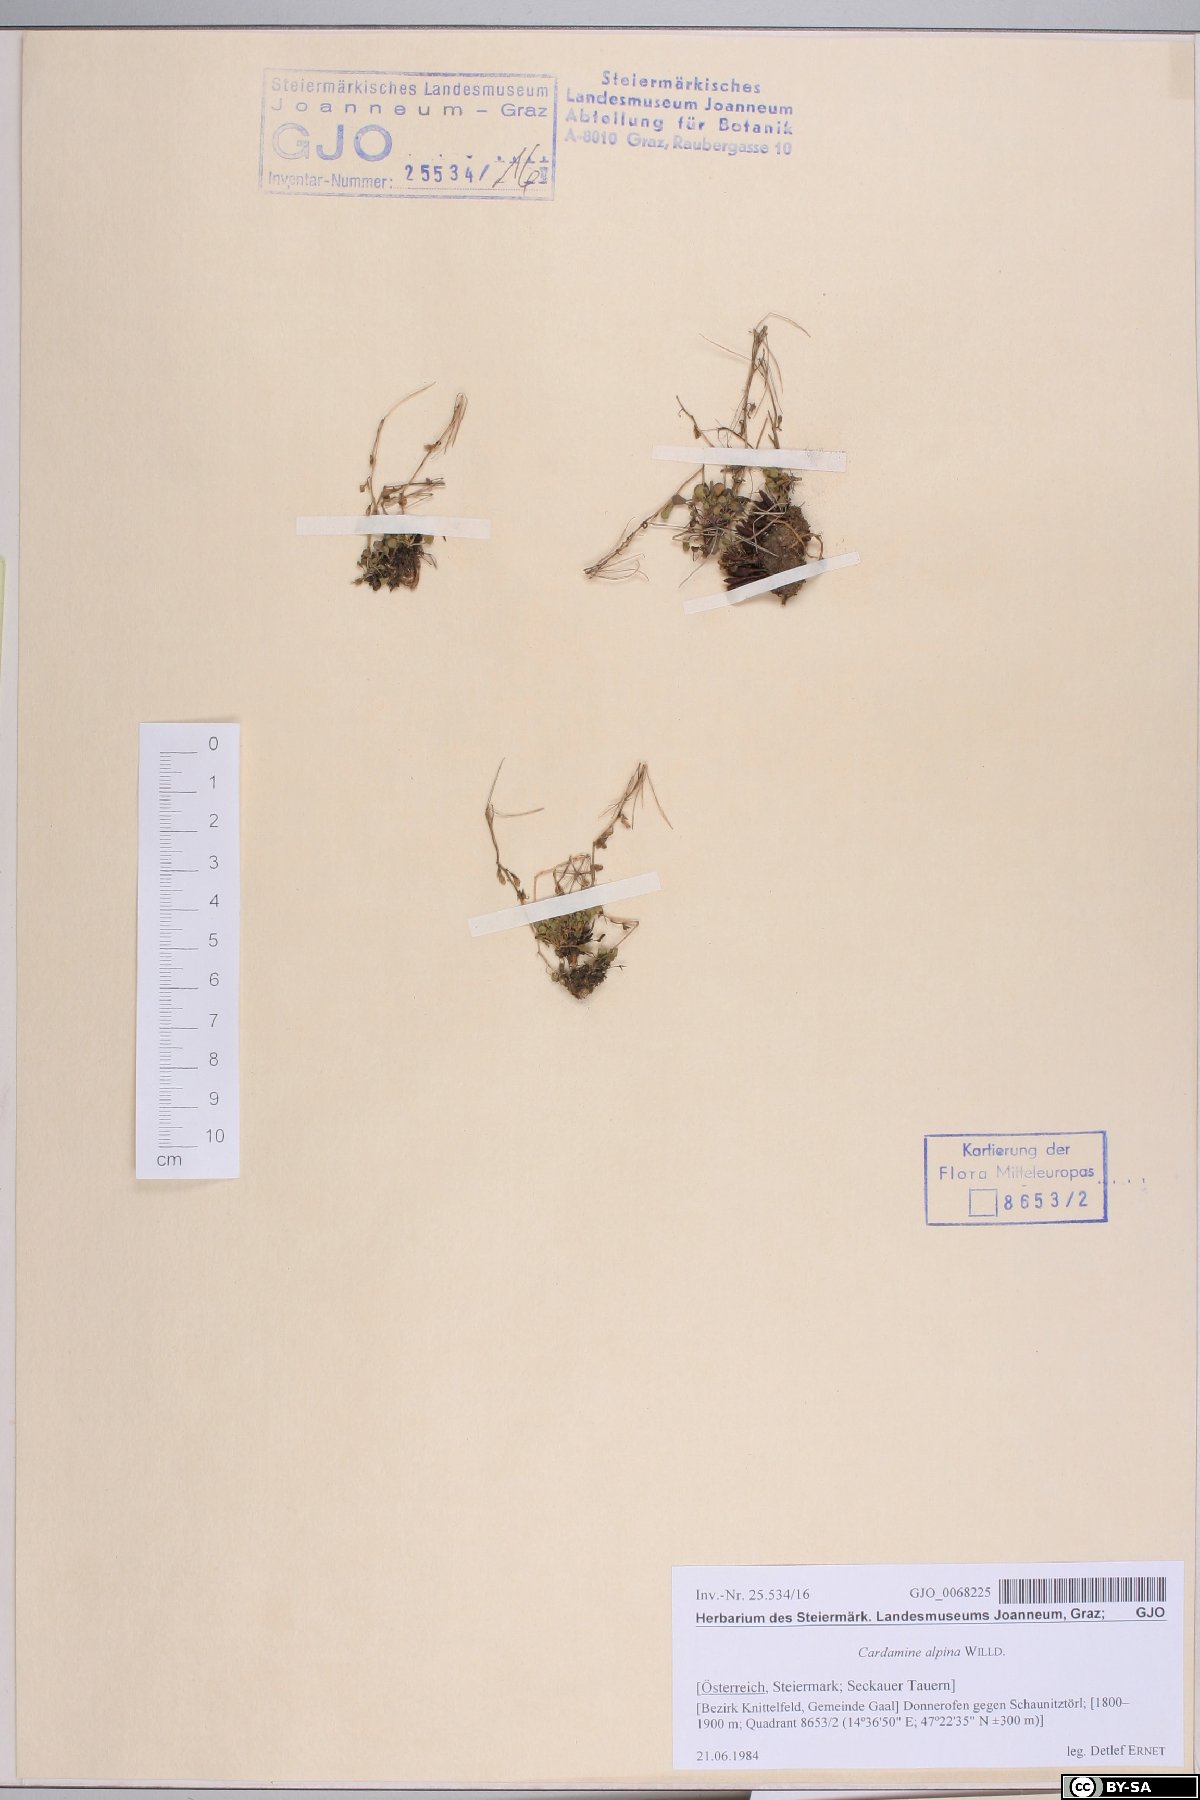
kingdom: Plantae
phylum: Tracheophyta
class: Magnoliopsida
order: Brassicales
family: Brassicaceae
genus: Cardamine
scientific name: Cardamine bellidifolia
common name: Alpine bittercress
